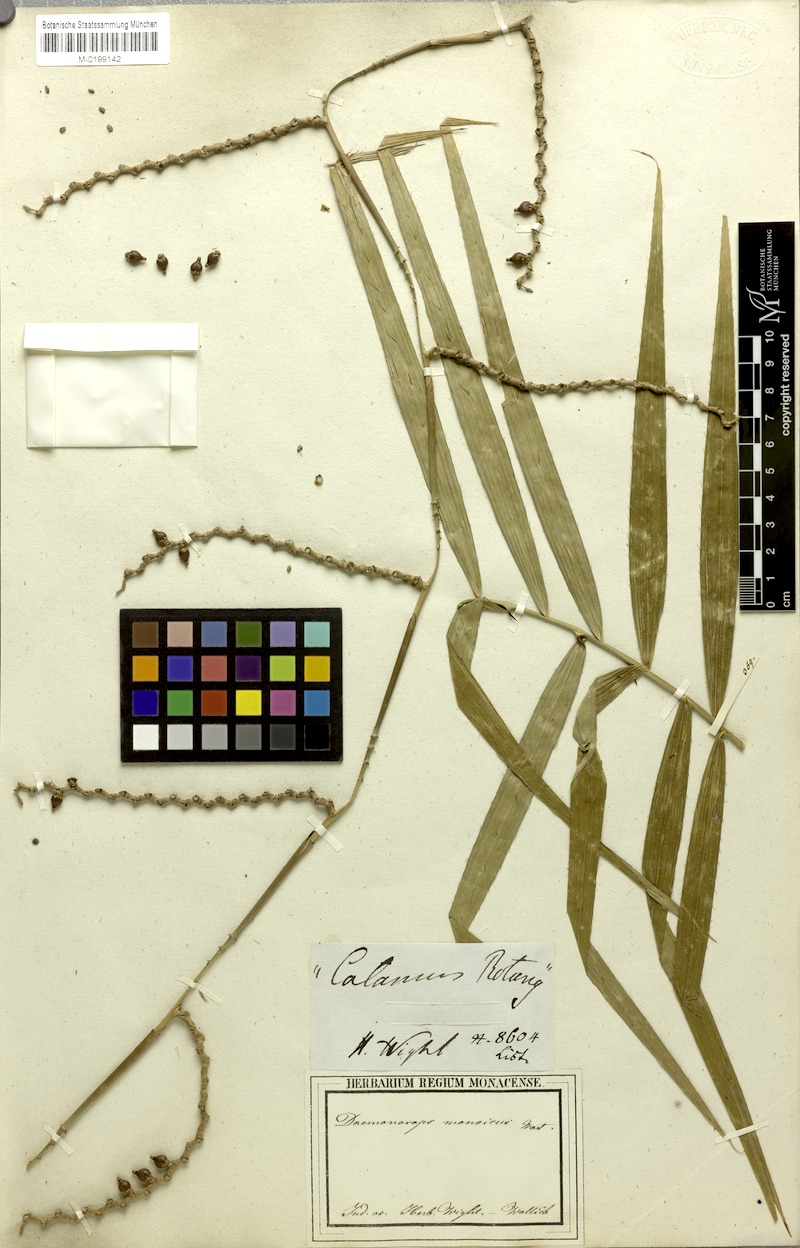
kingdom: Plantae
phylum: Tracheophyta
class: Liliopsida
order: Arecales
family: Arecaceae
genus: Calamus
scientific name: Calamus pseudotenuis
